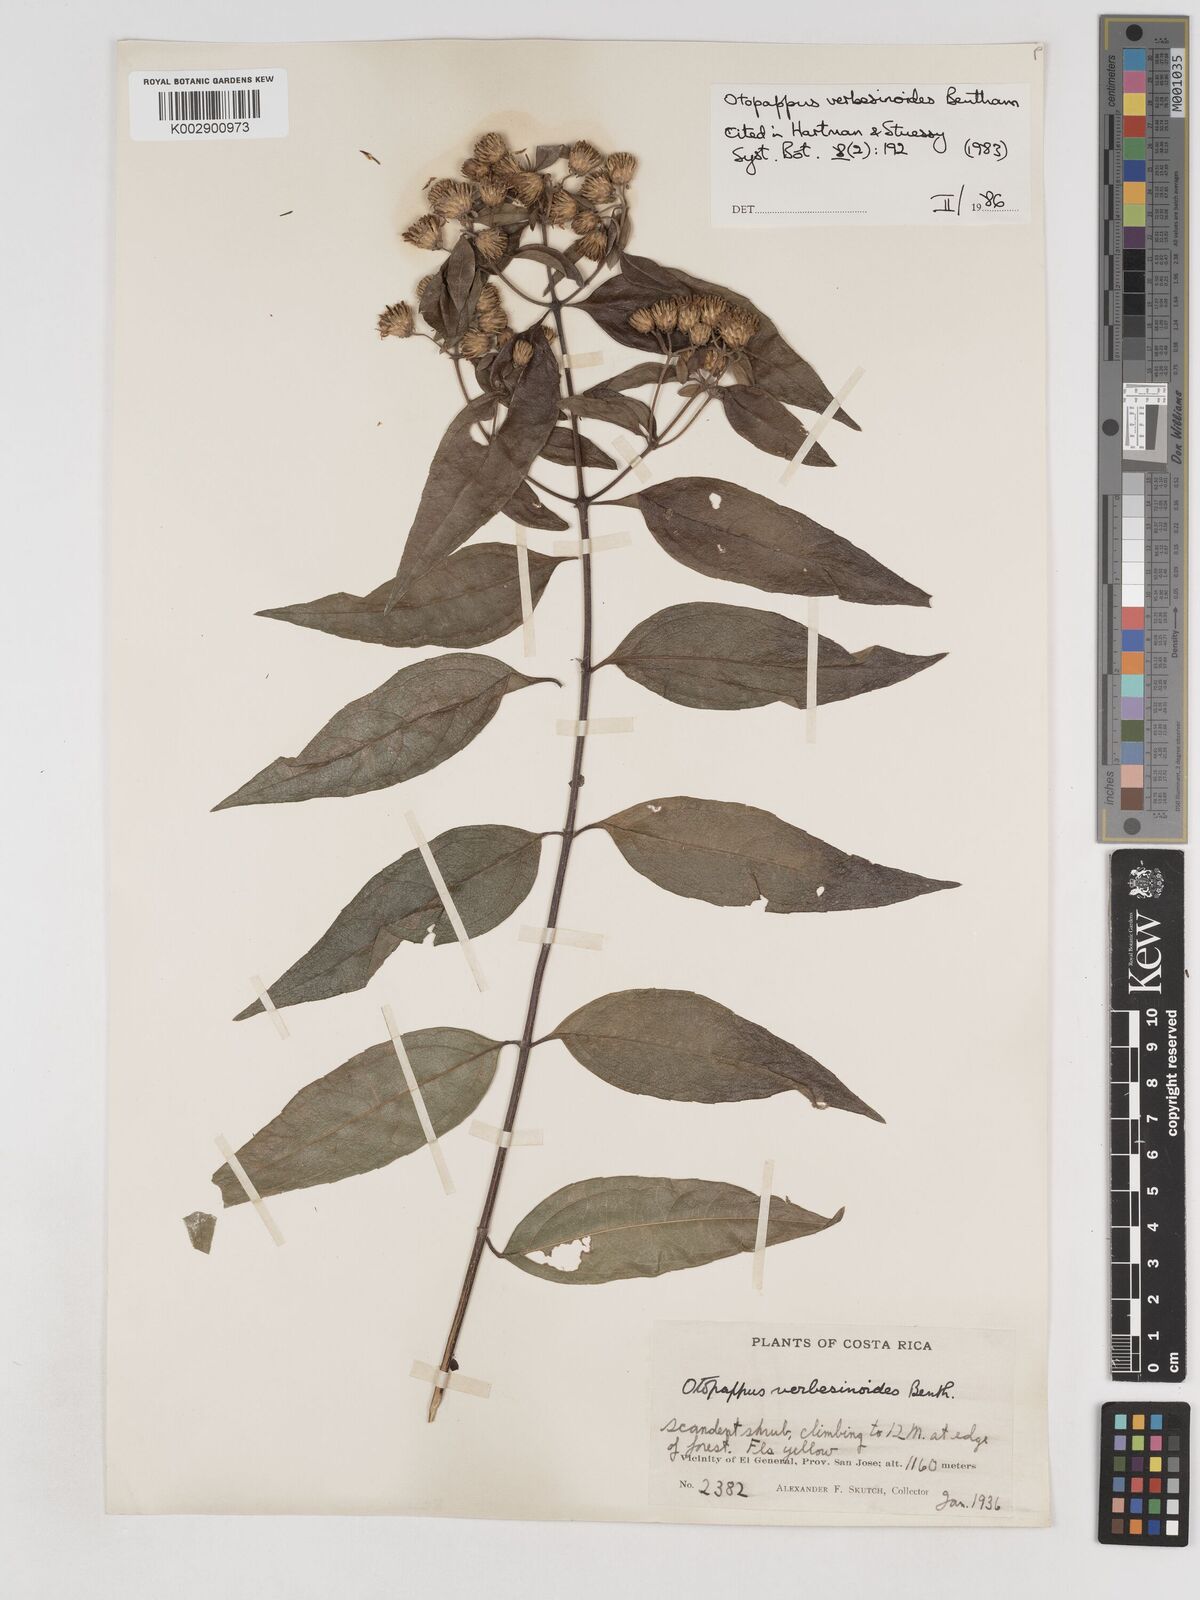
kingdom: Plantae
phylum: Tracheophyta
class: Magnoliopsida
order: Asterales
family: Asteraceae
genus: Otopappus
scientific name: Otopappus verbesinoides
